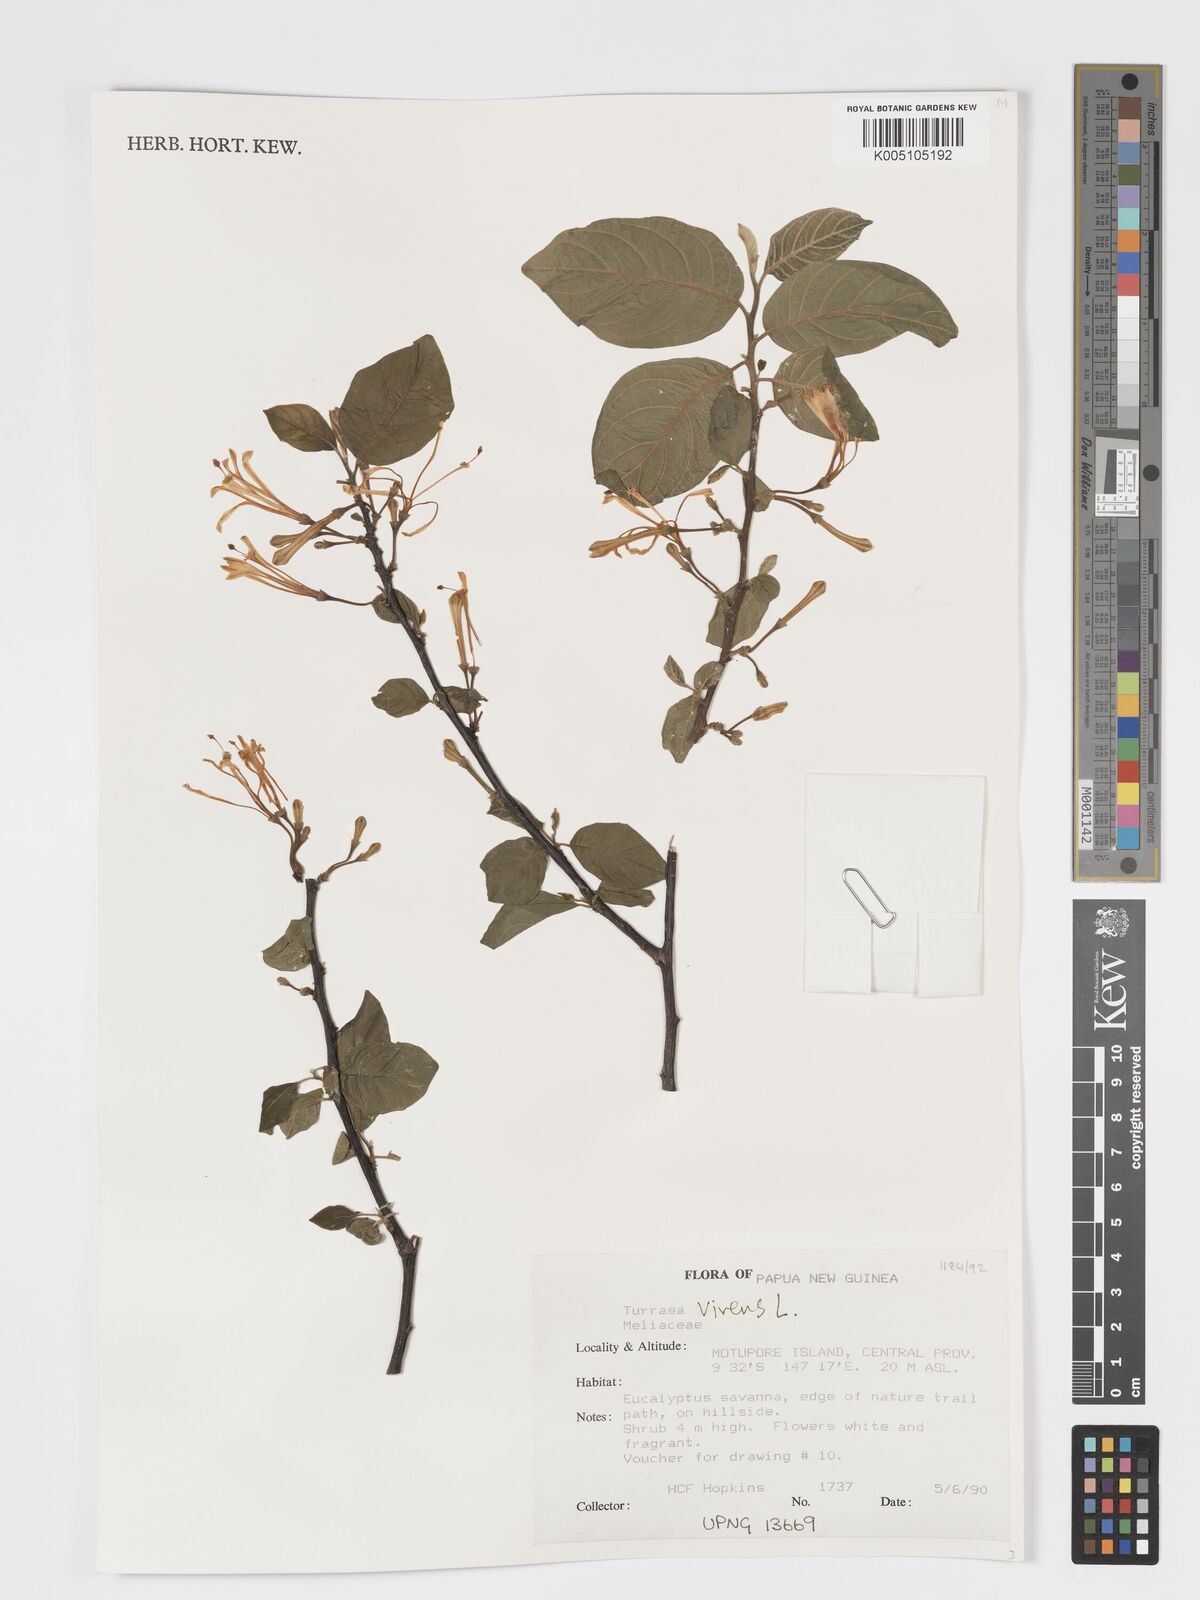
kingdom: Plantae
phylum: Tracheophyta
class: Magnoliopsida
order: Sapindales
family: Meliaceae
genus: Turraea
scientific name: Turraea
